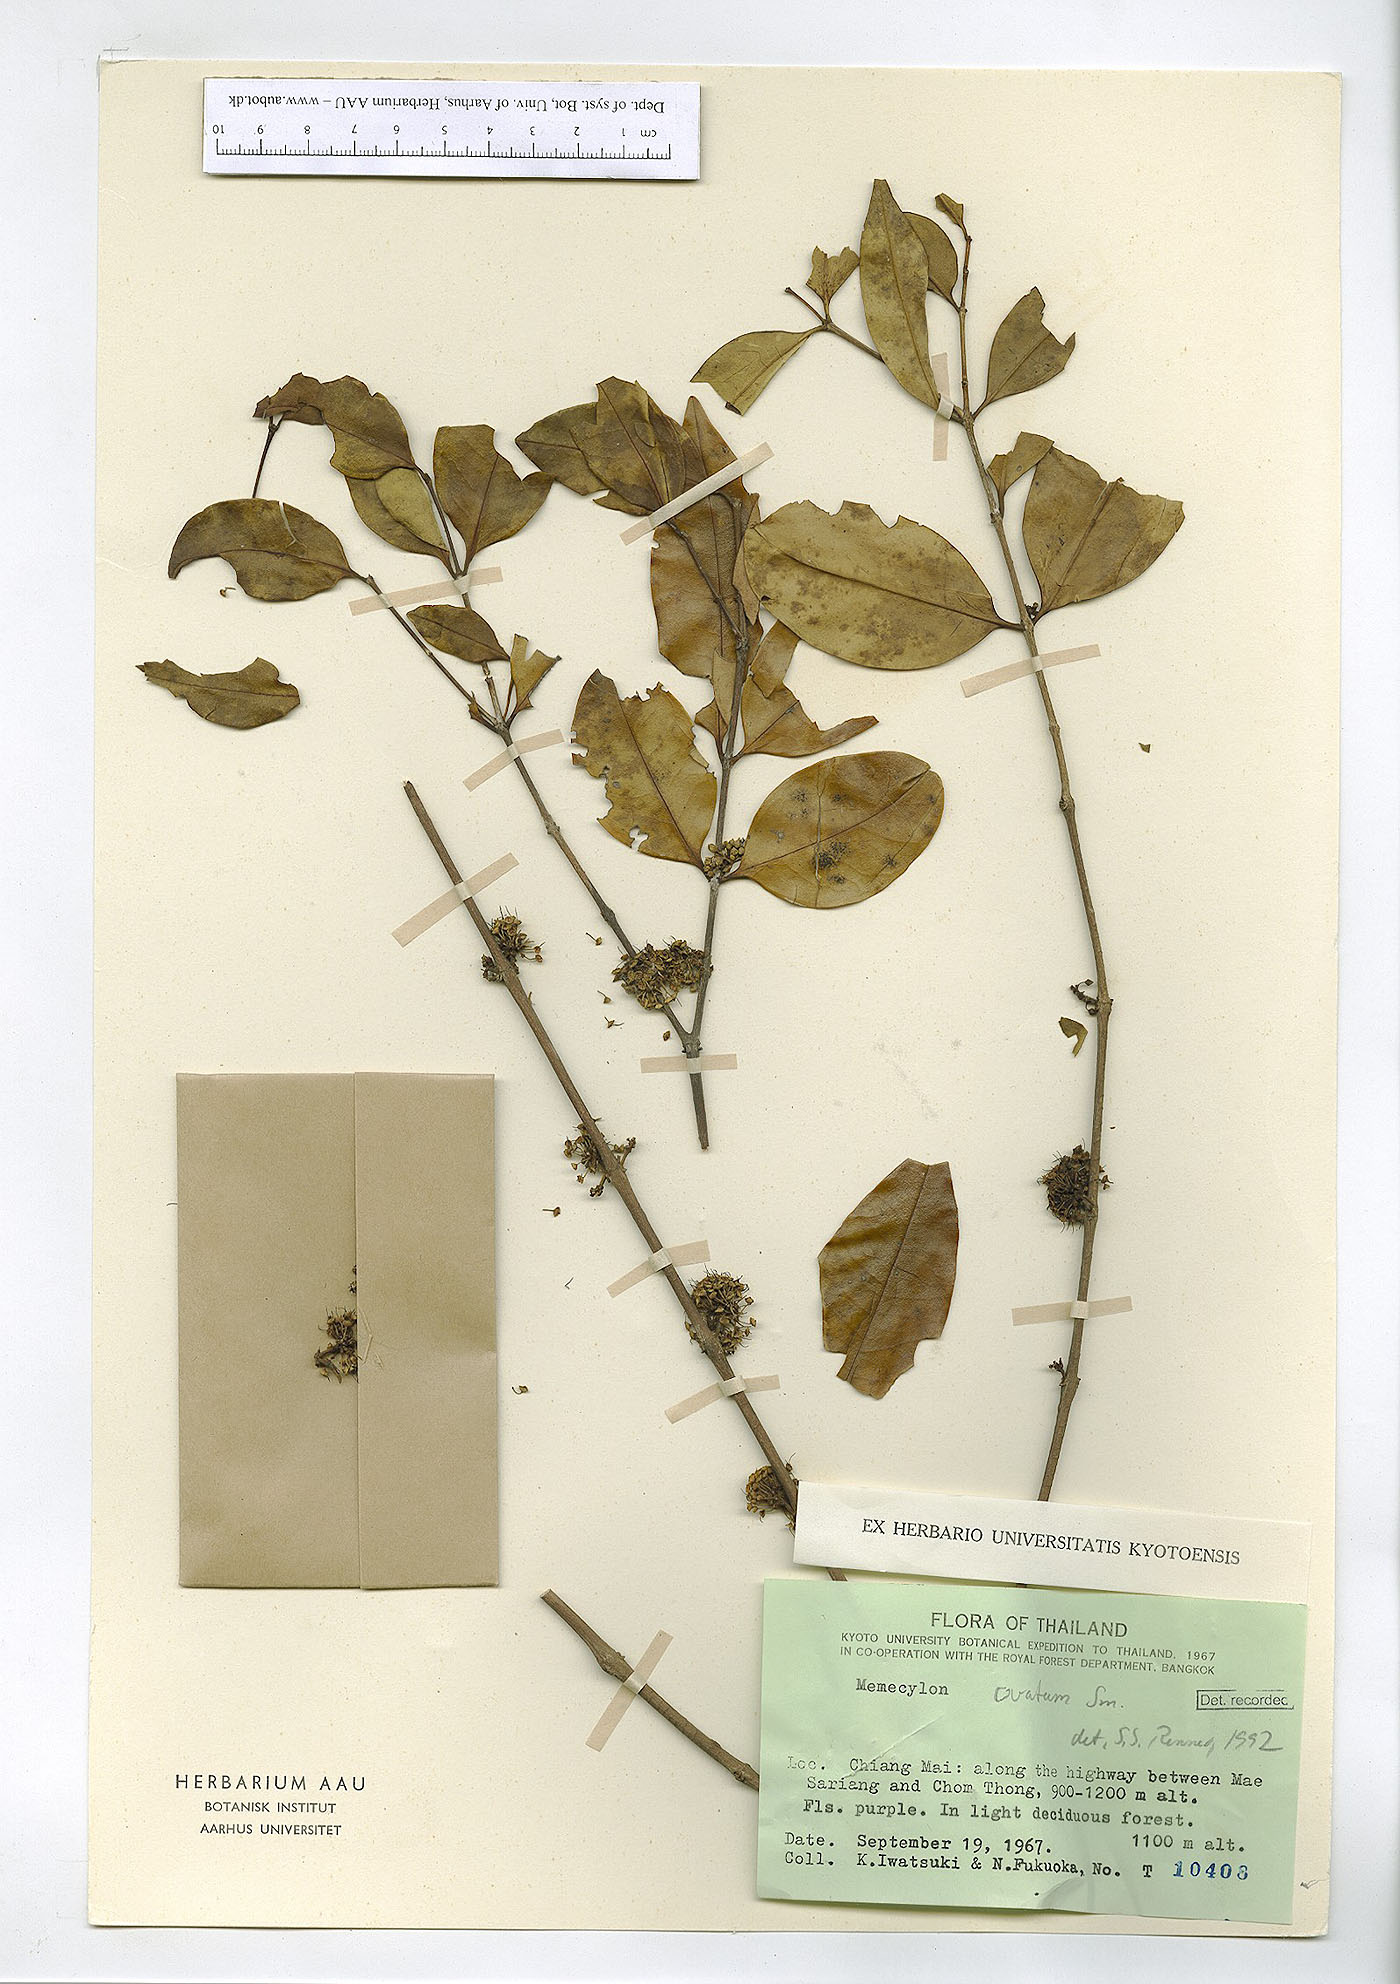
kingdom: Plantae
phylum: Tracheophyta
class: Magnoliopsida
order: Myrtales
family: Melastomataceae
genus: Memecylon
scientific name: Memecylon ovatum
